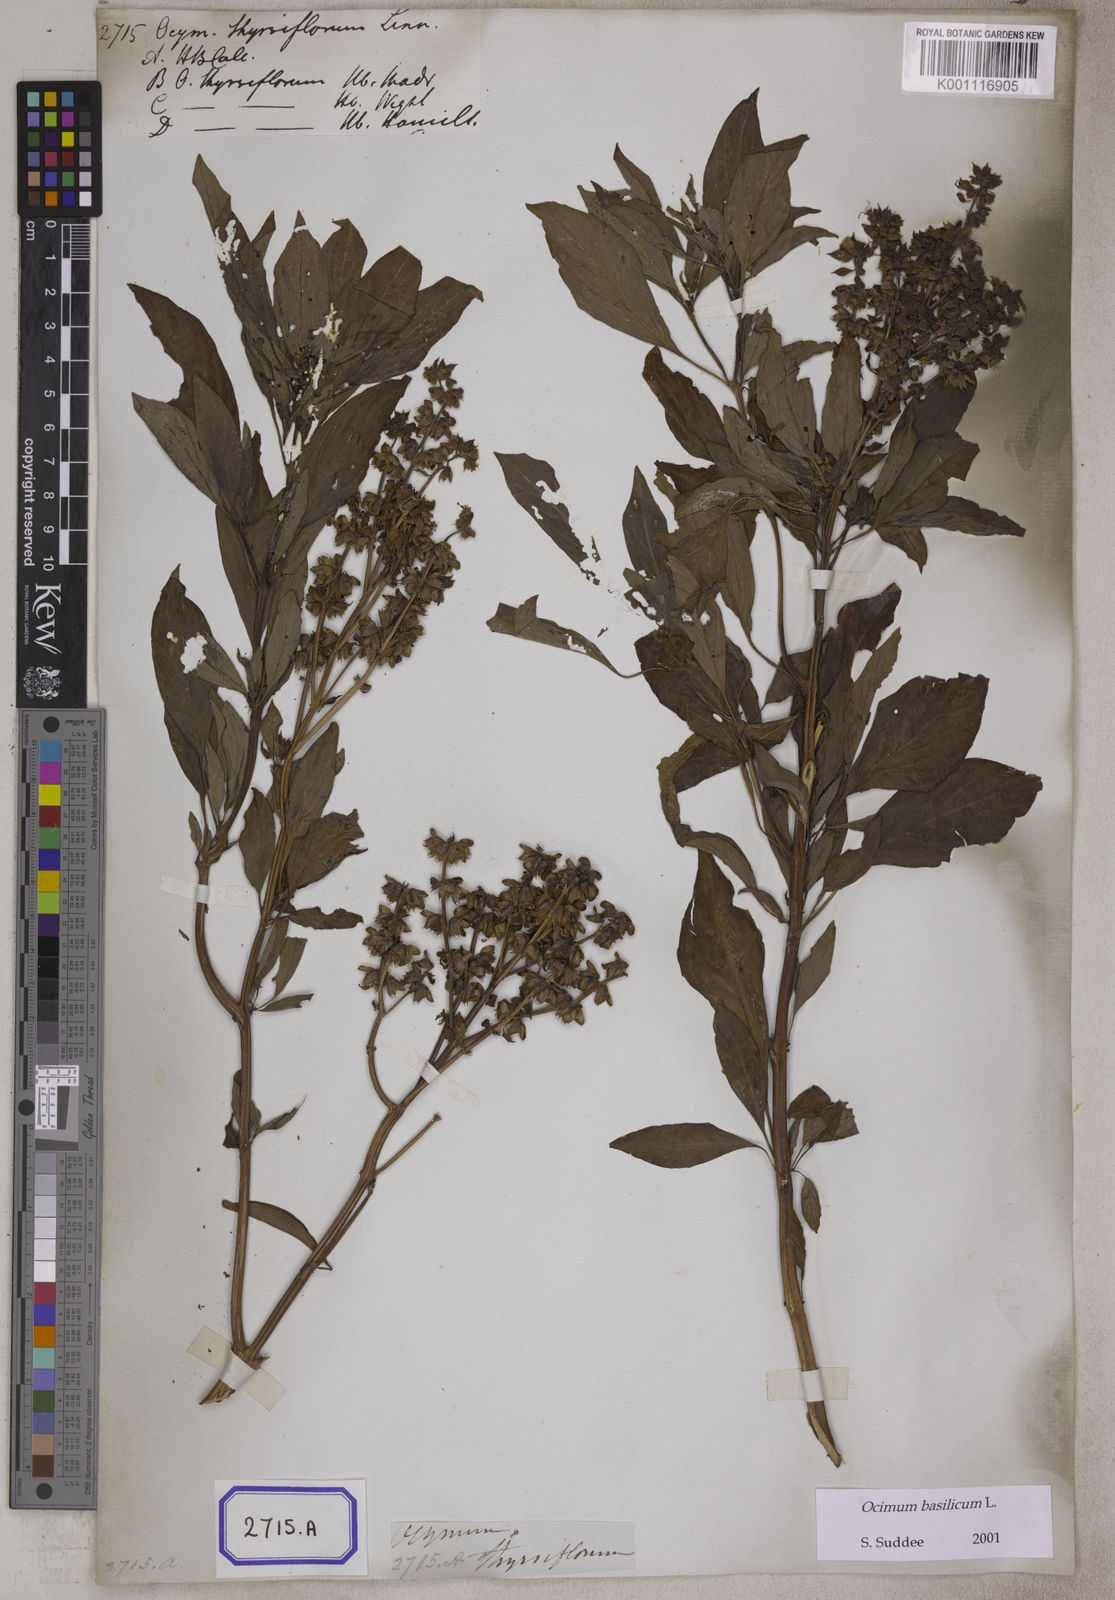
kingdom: Plantae
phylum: Tracheophyta
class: Magnoliopsida
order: Lamiales
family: Lamiaceae
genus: Ocimum
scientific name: Ocimum basilicum
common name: Sweet basil
